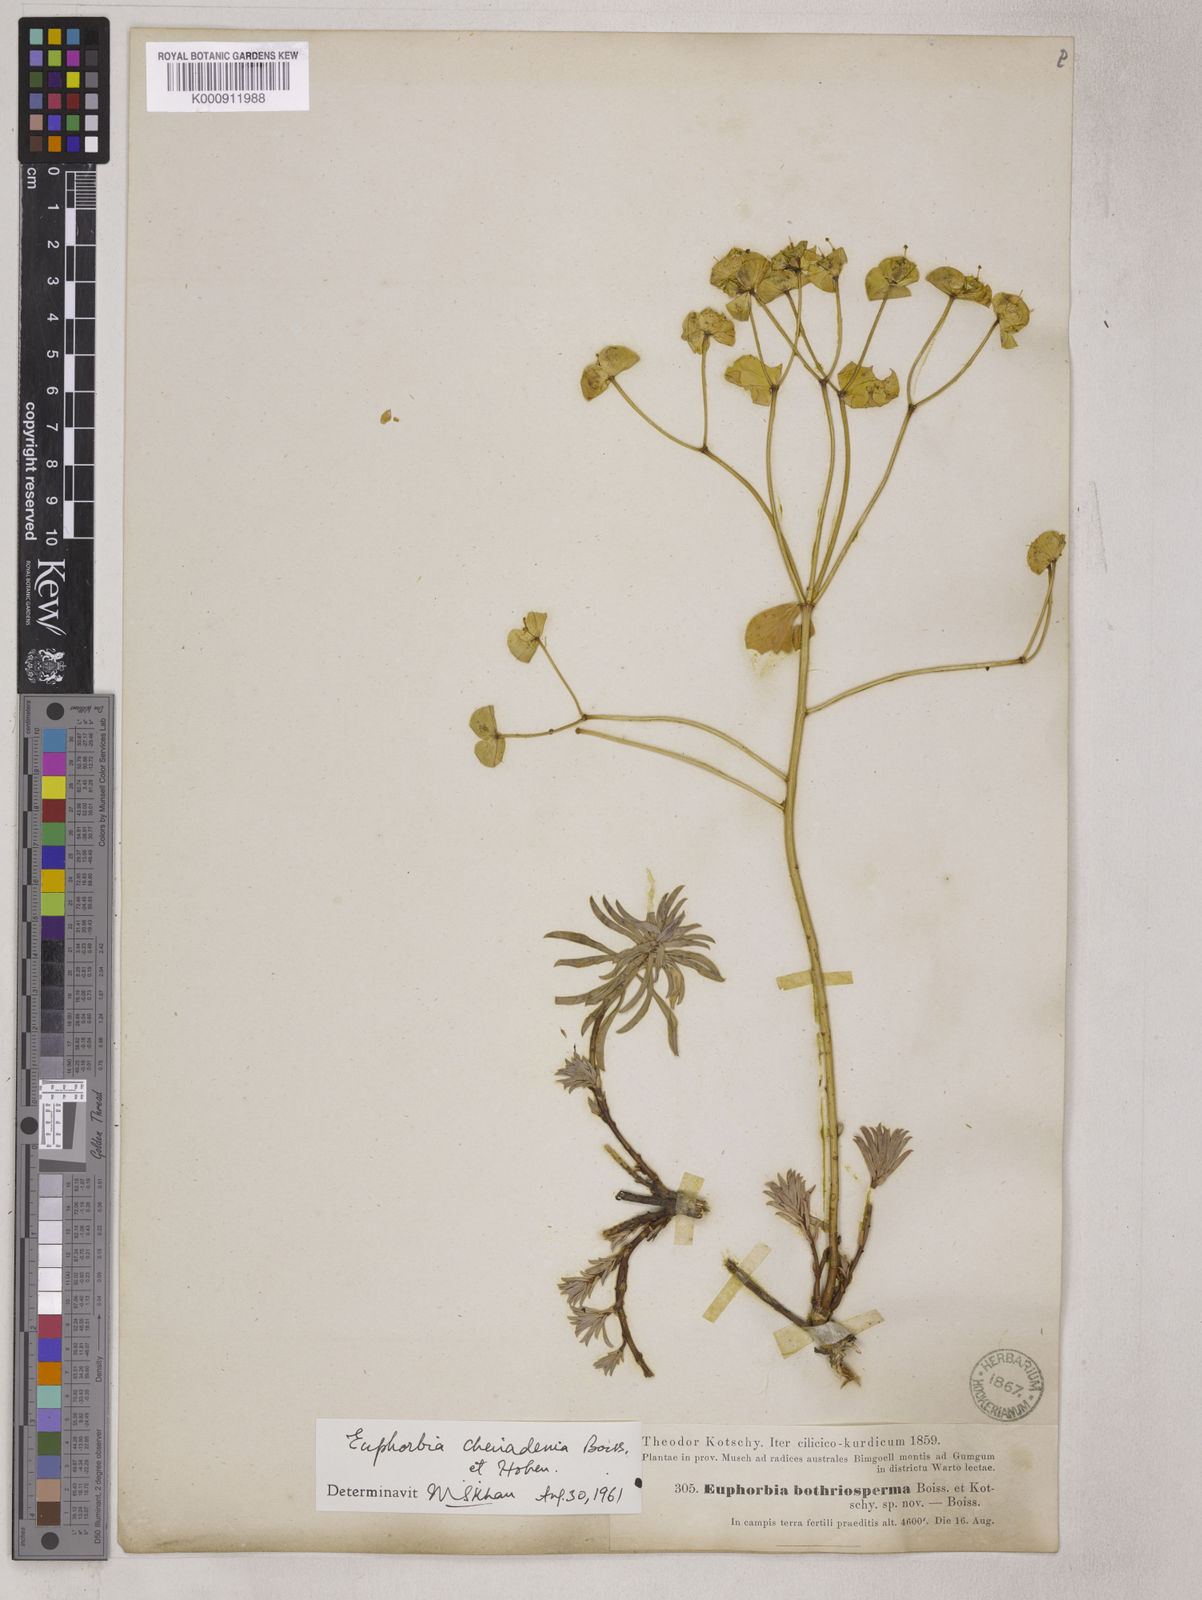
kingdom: Plantae
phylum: Tracheophyta
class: Magnoliopsida
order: Malpighiales
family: Euphorbiaceae
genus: Euphorbia
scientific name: Euphorbia cheiradenia
